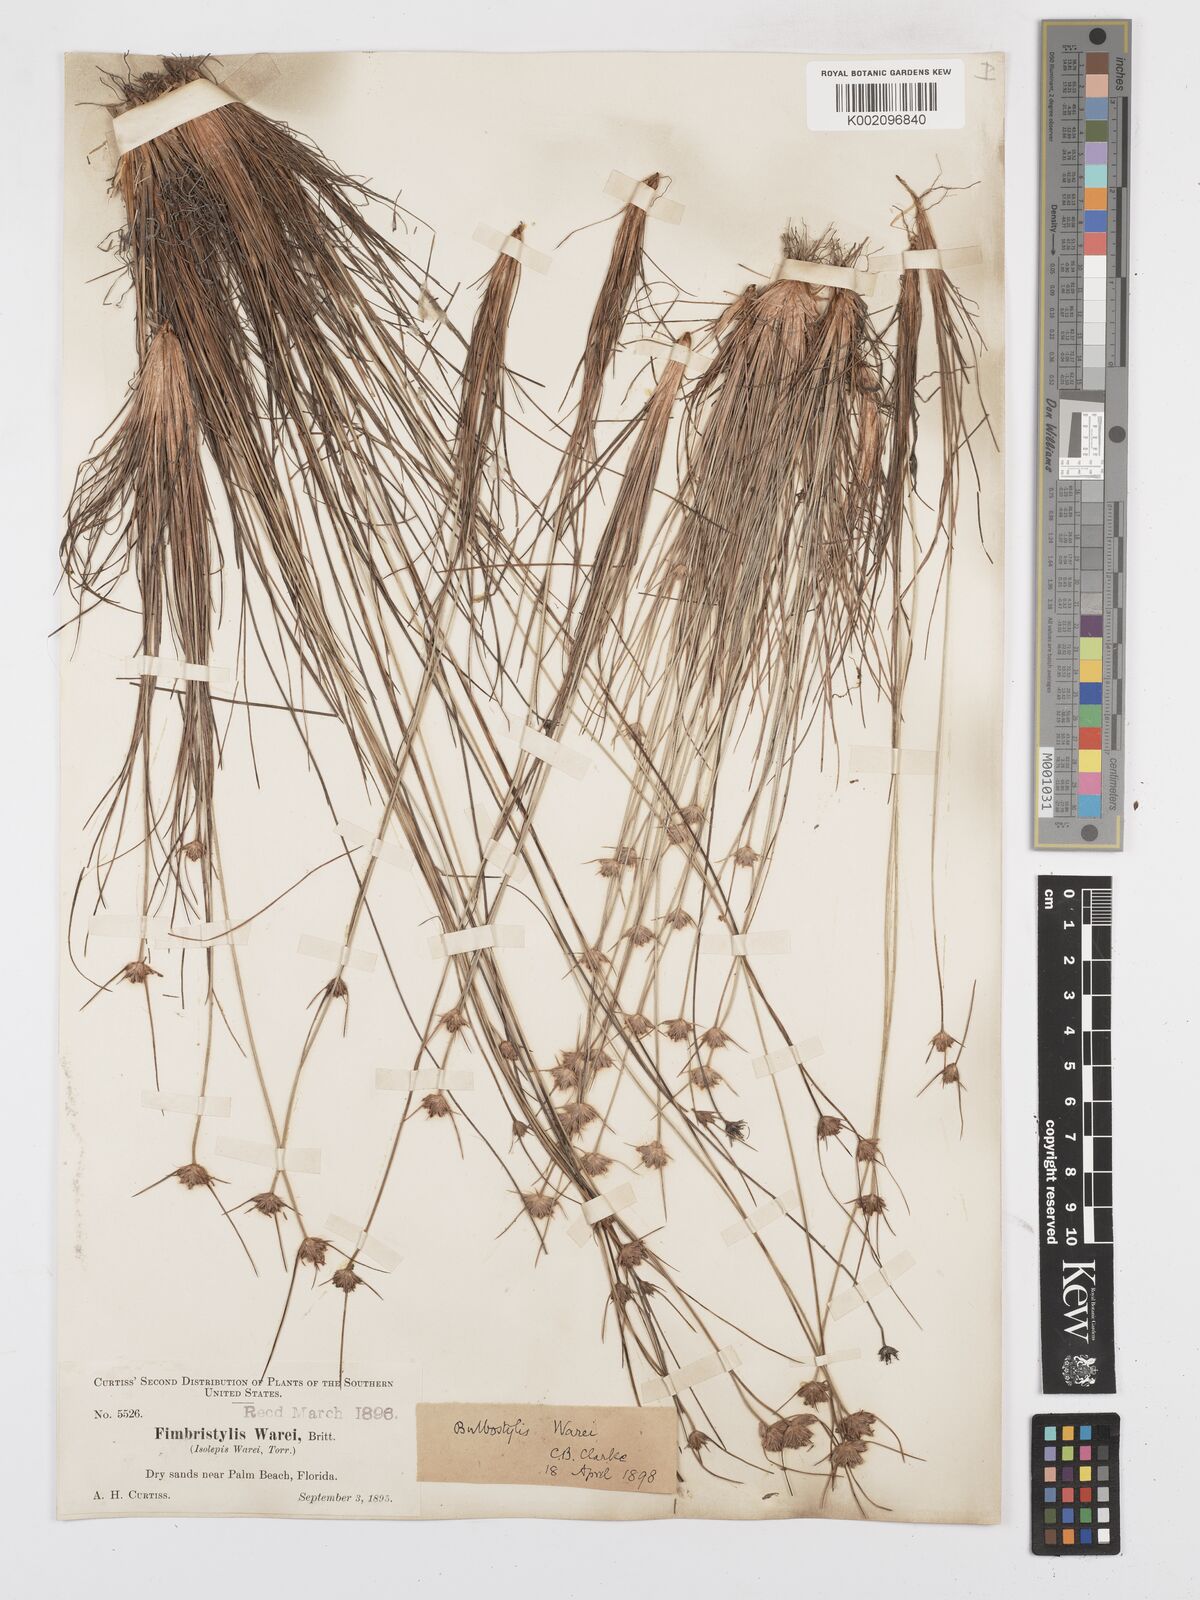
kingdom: Plantae
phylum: Tracheophyta
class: Liliopsida
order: Poales
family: Cyperaceae
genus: Bulbostylis
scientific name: Bulbostylis warei
